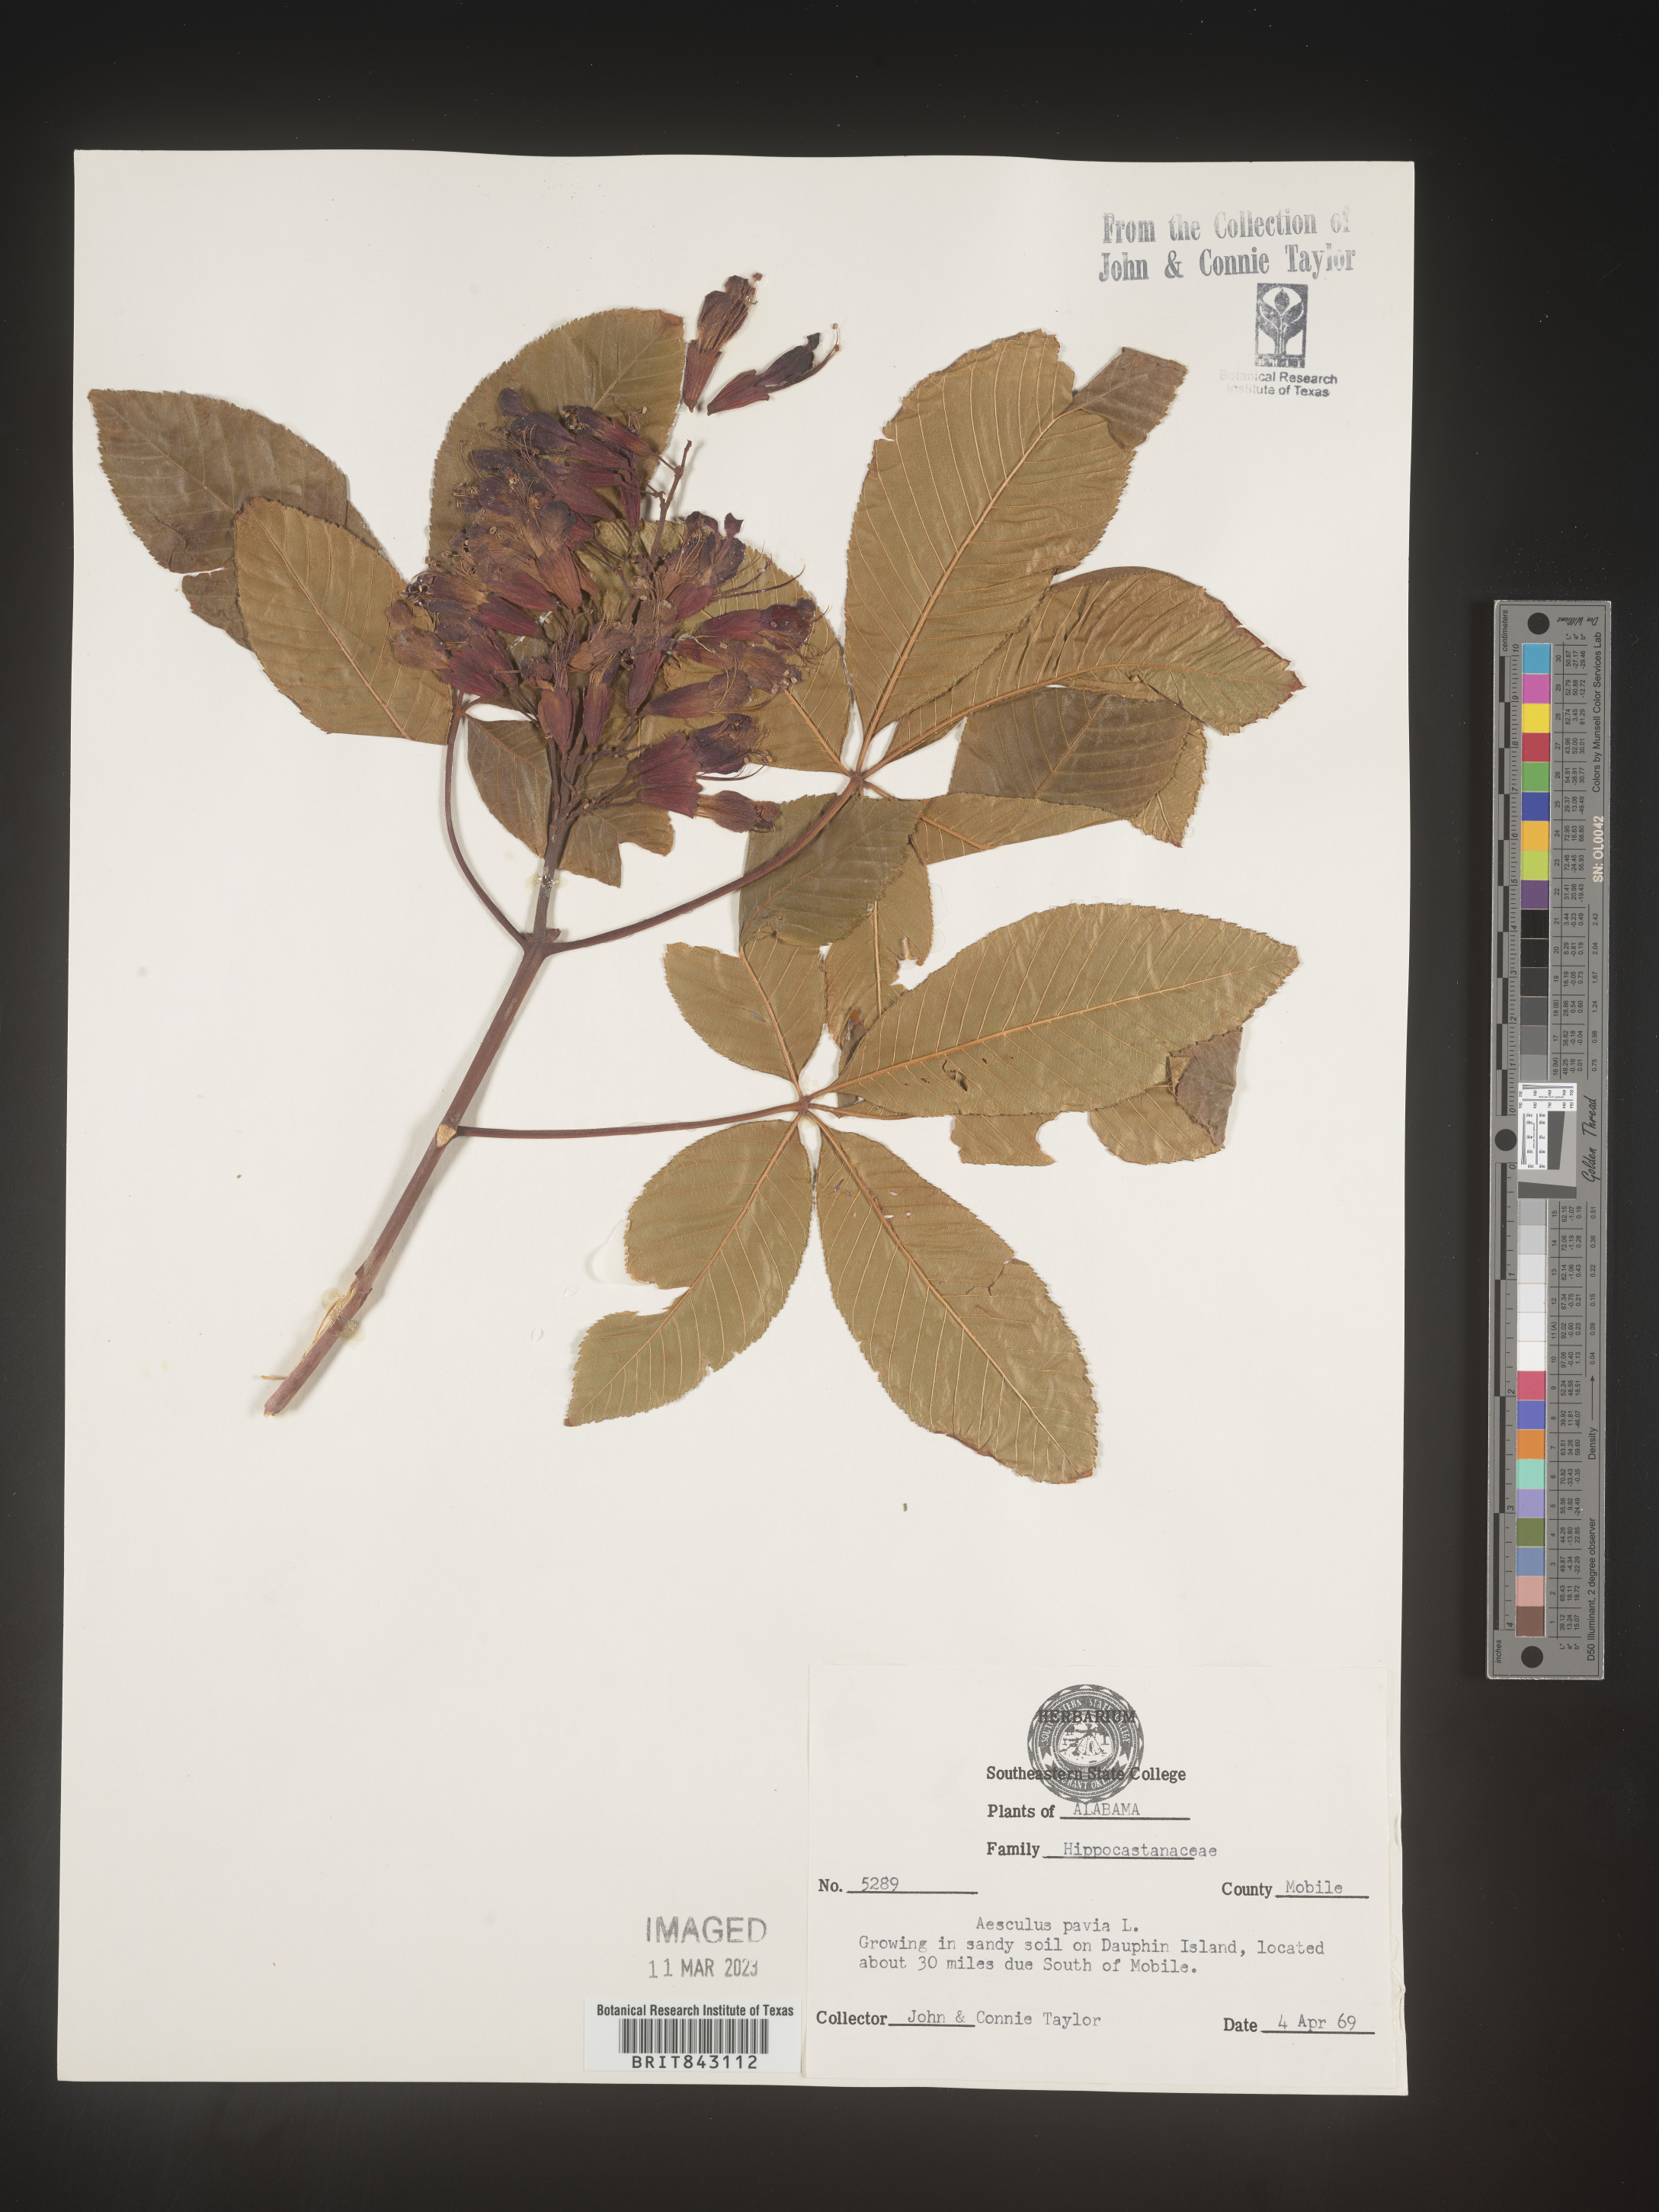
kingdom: Plantae
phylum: Tracheophyta
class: Magnoliopsida
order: Sapindales
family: Sapindaceae
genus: Aesculus
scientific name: Aesculus pavia
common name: Red buckeye
